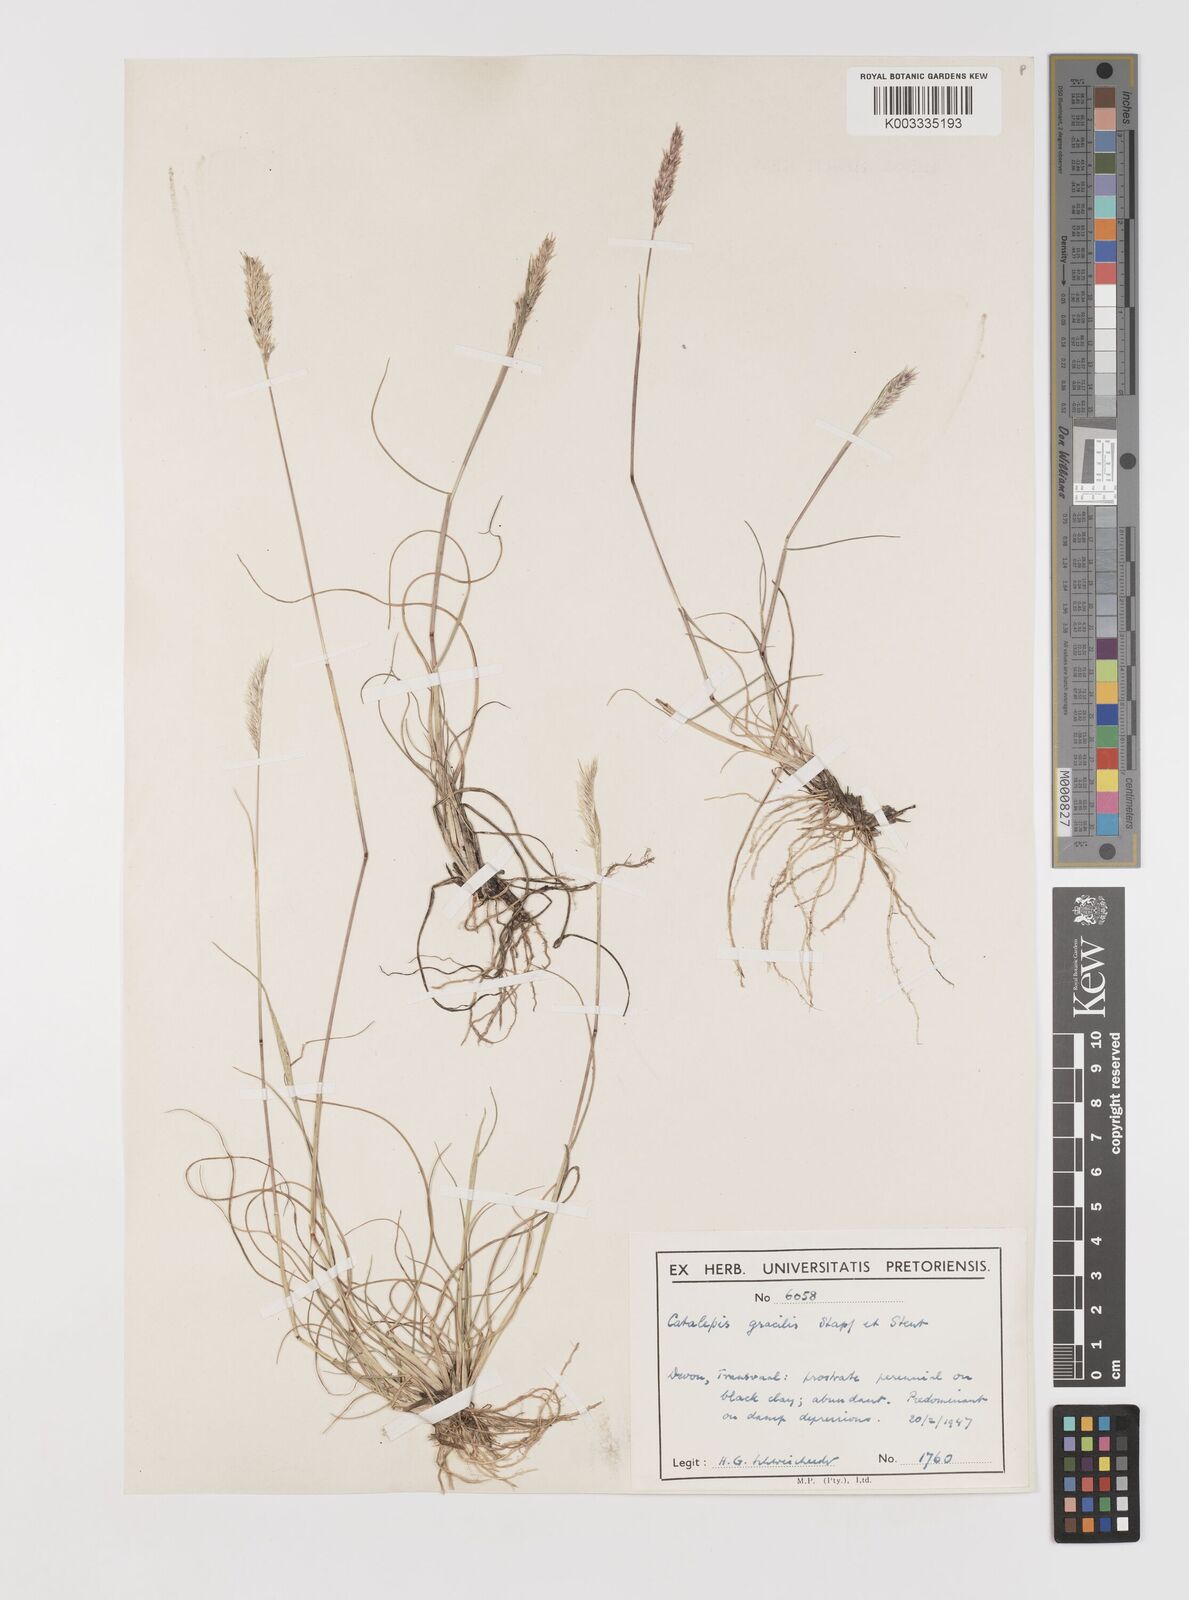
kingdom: Plantae
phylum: Tracheophyta
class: Liliopsida
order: Poales
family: Poaceae
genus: Catalepis
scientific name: Catalepis gracilis
